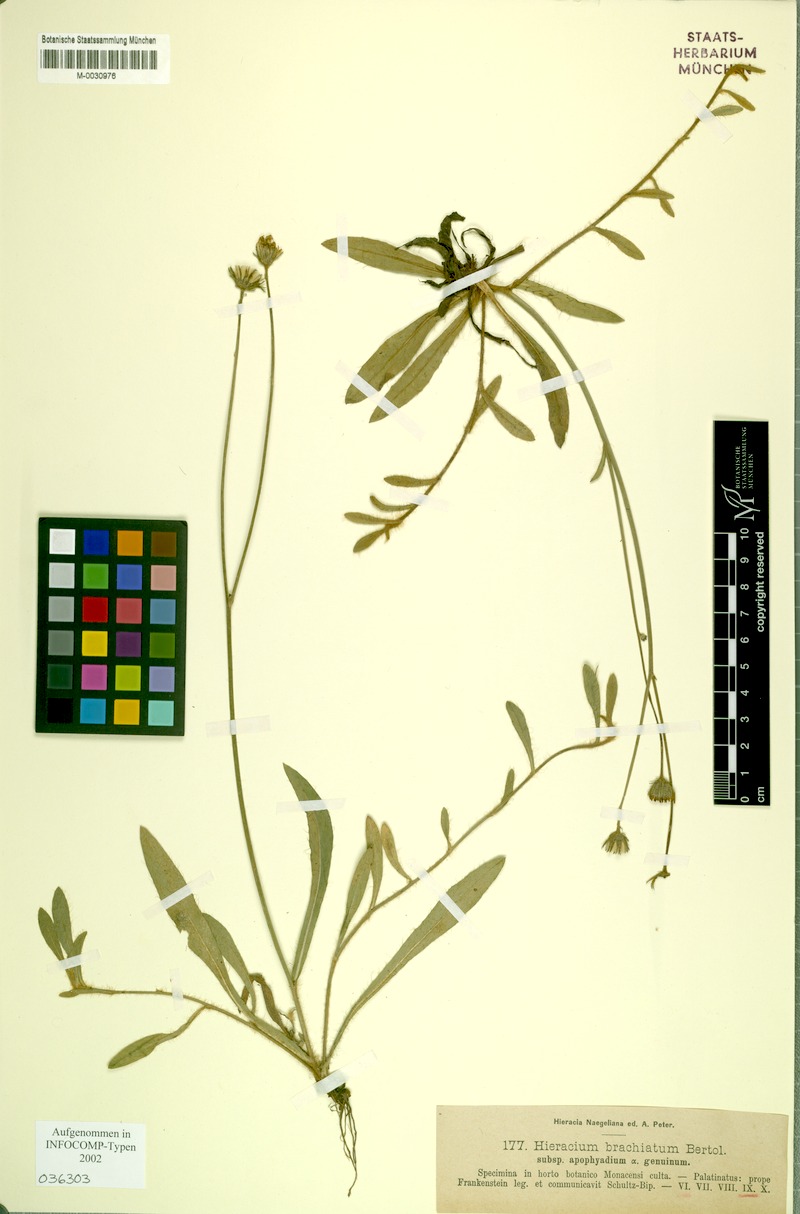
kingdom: Plantae
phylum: Tracheophyta
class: Magnoliopsida
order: Asterales
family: Asteraceae
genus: Pilosella
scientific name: Pilosella acutifolia
